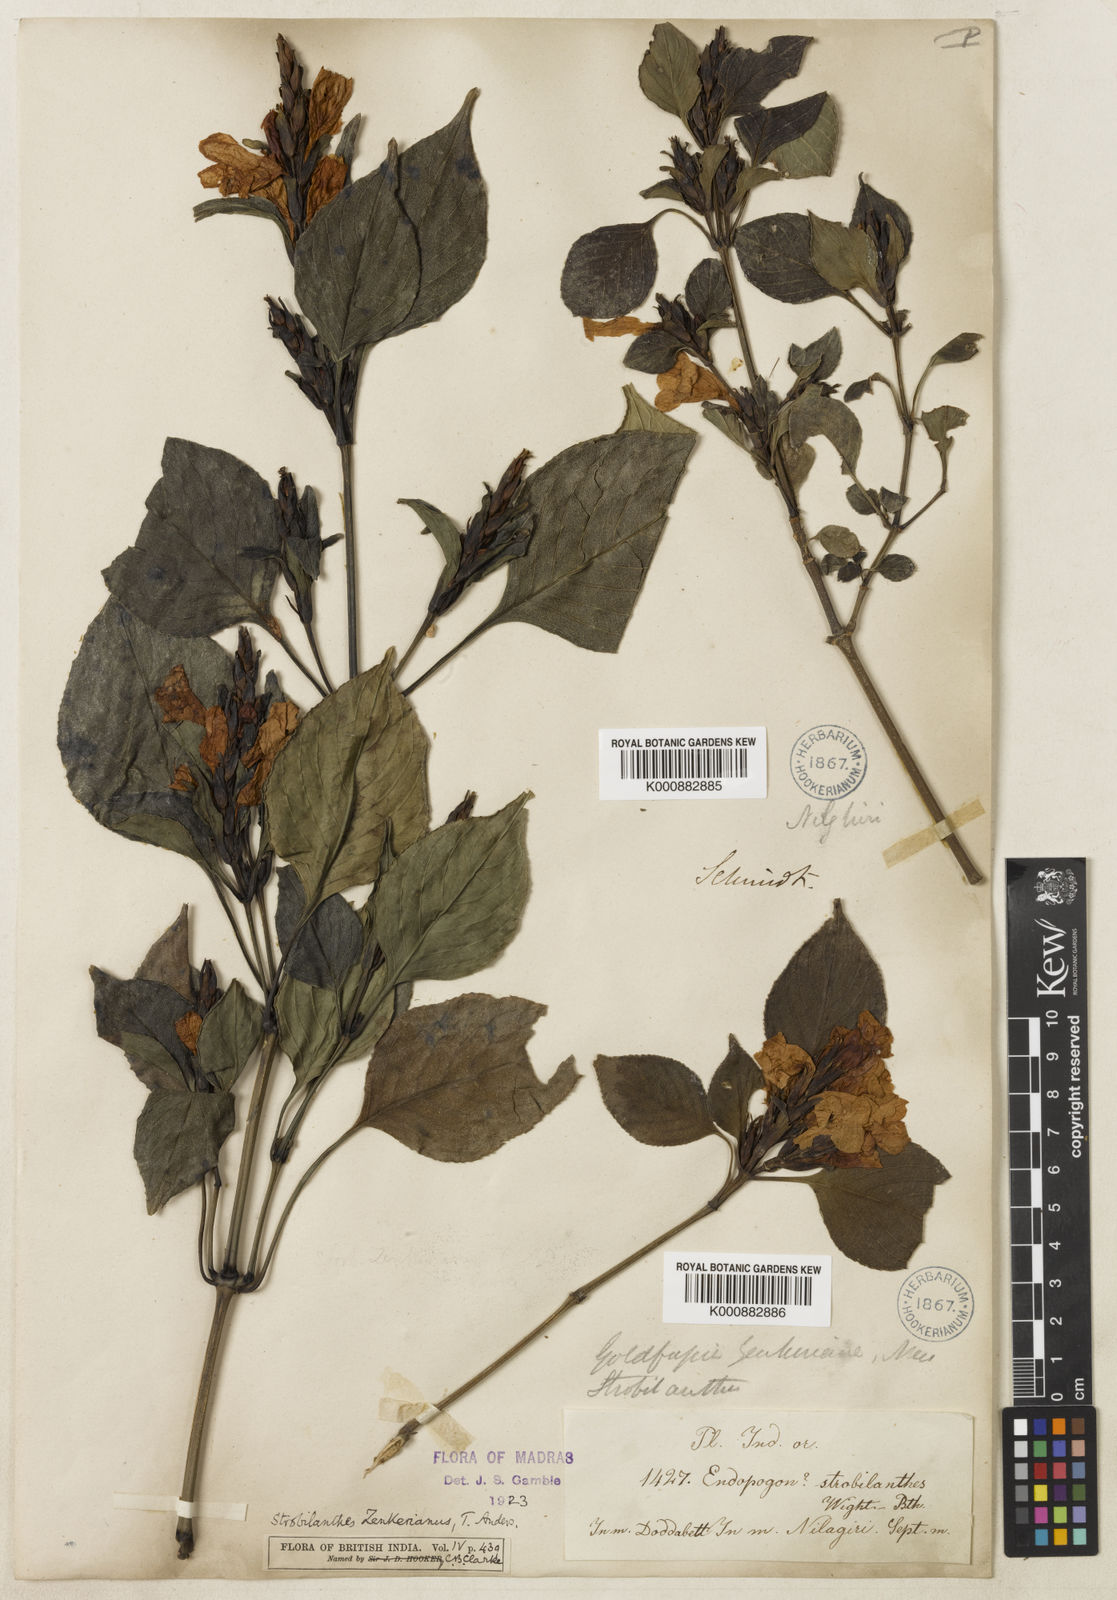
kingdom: Plantae
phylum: Tracheophyta
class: Magnoliopsida
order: Lamiales
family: Acanthaceae
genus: Strobilanthes
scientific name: Strobilanthes zenkeriana
